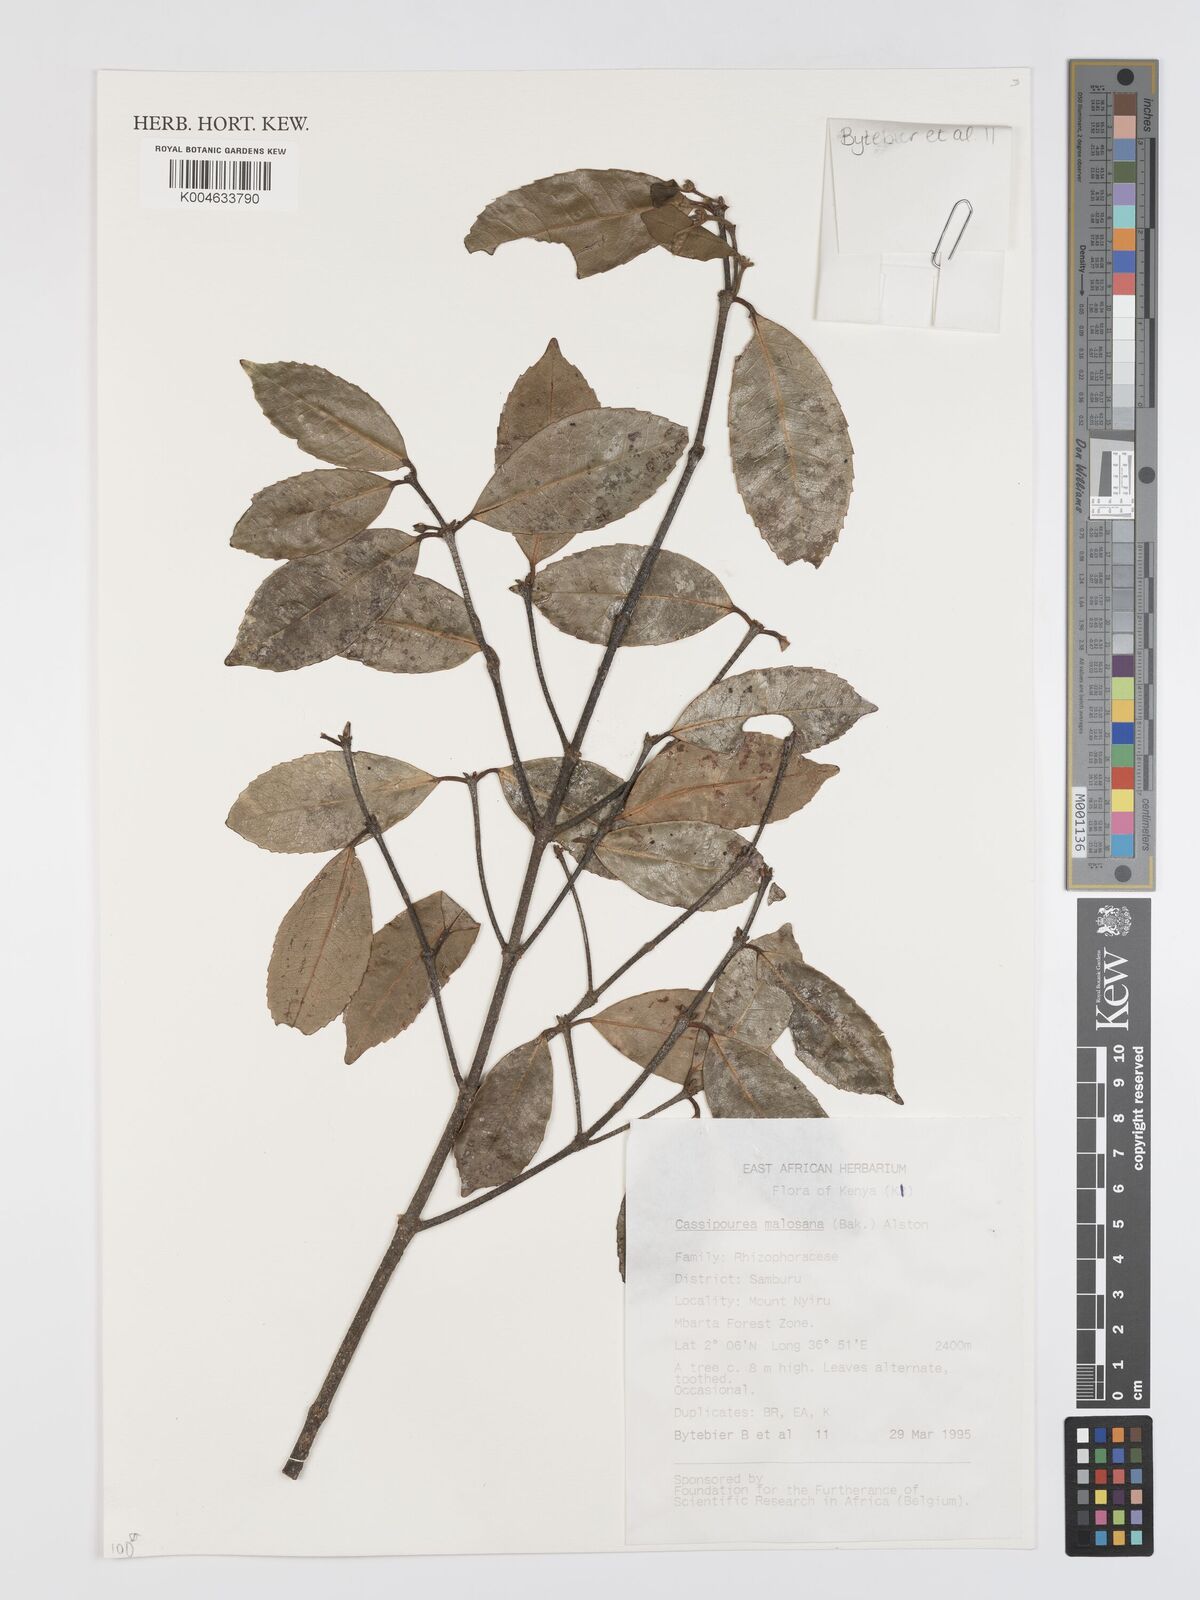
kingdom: Plantae
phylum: Tracheophyta
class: Magnoliopsida
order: Malpighiales
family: Rhizophoraceae
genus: Cassipourea
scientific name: Cassipourea malosana
